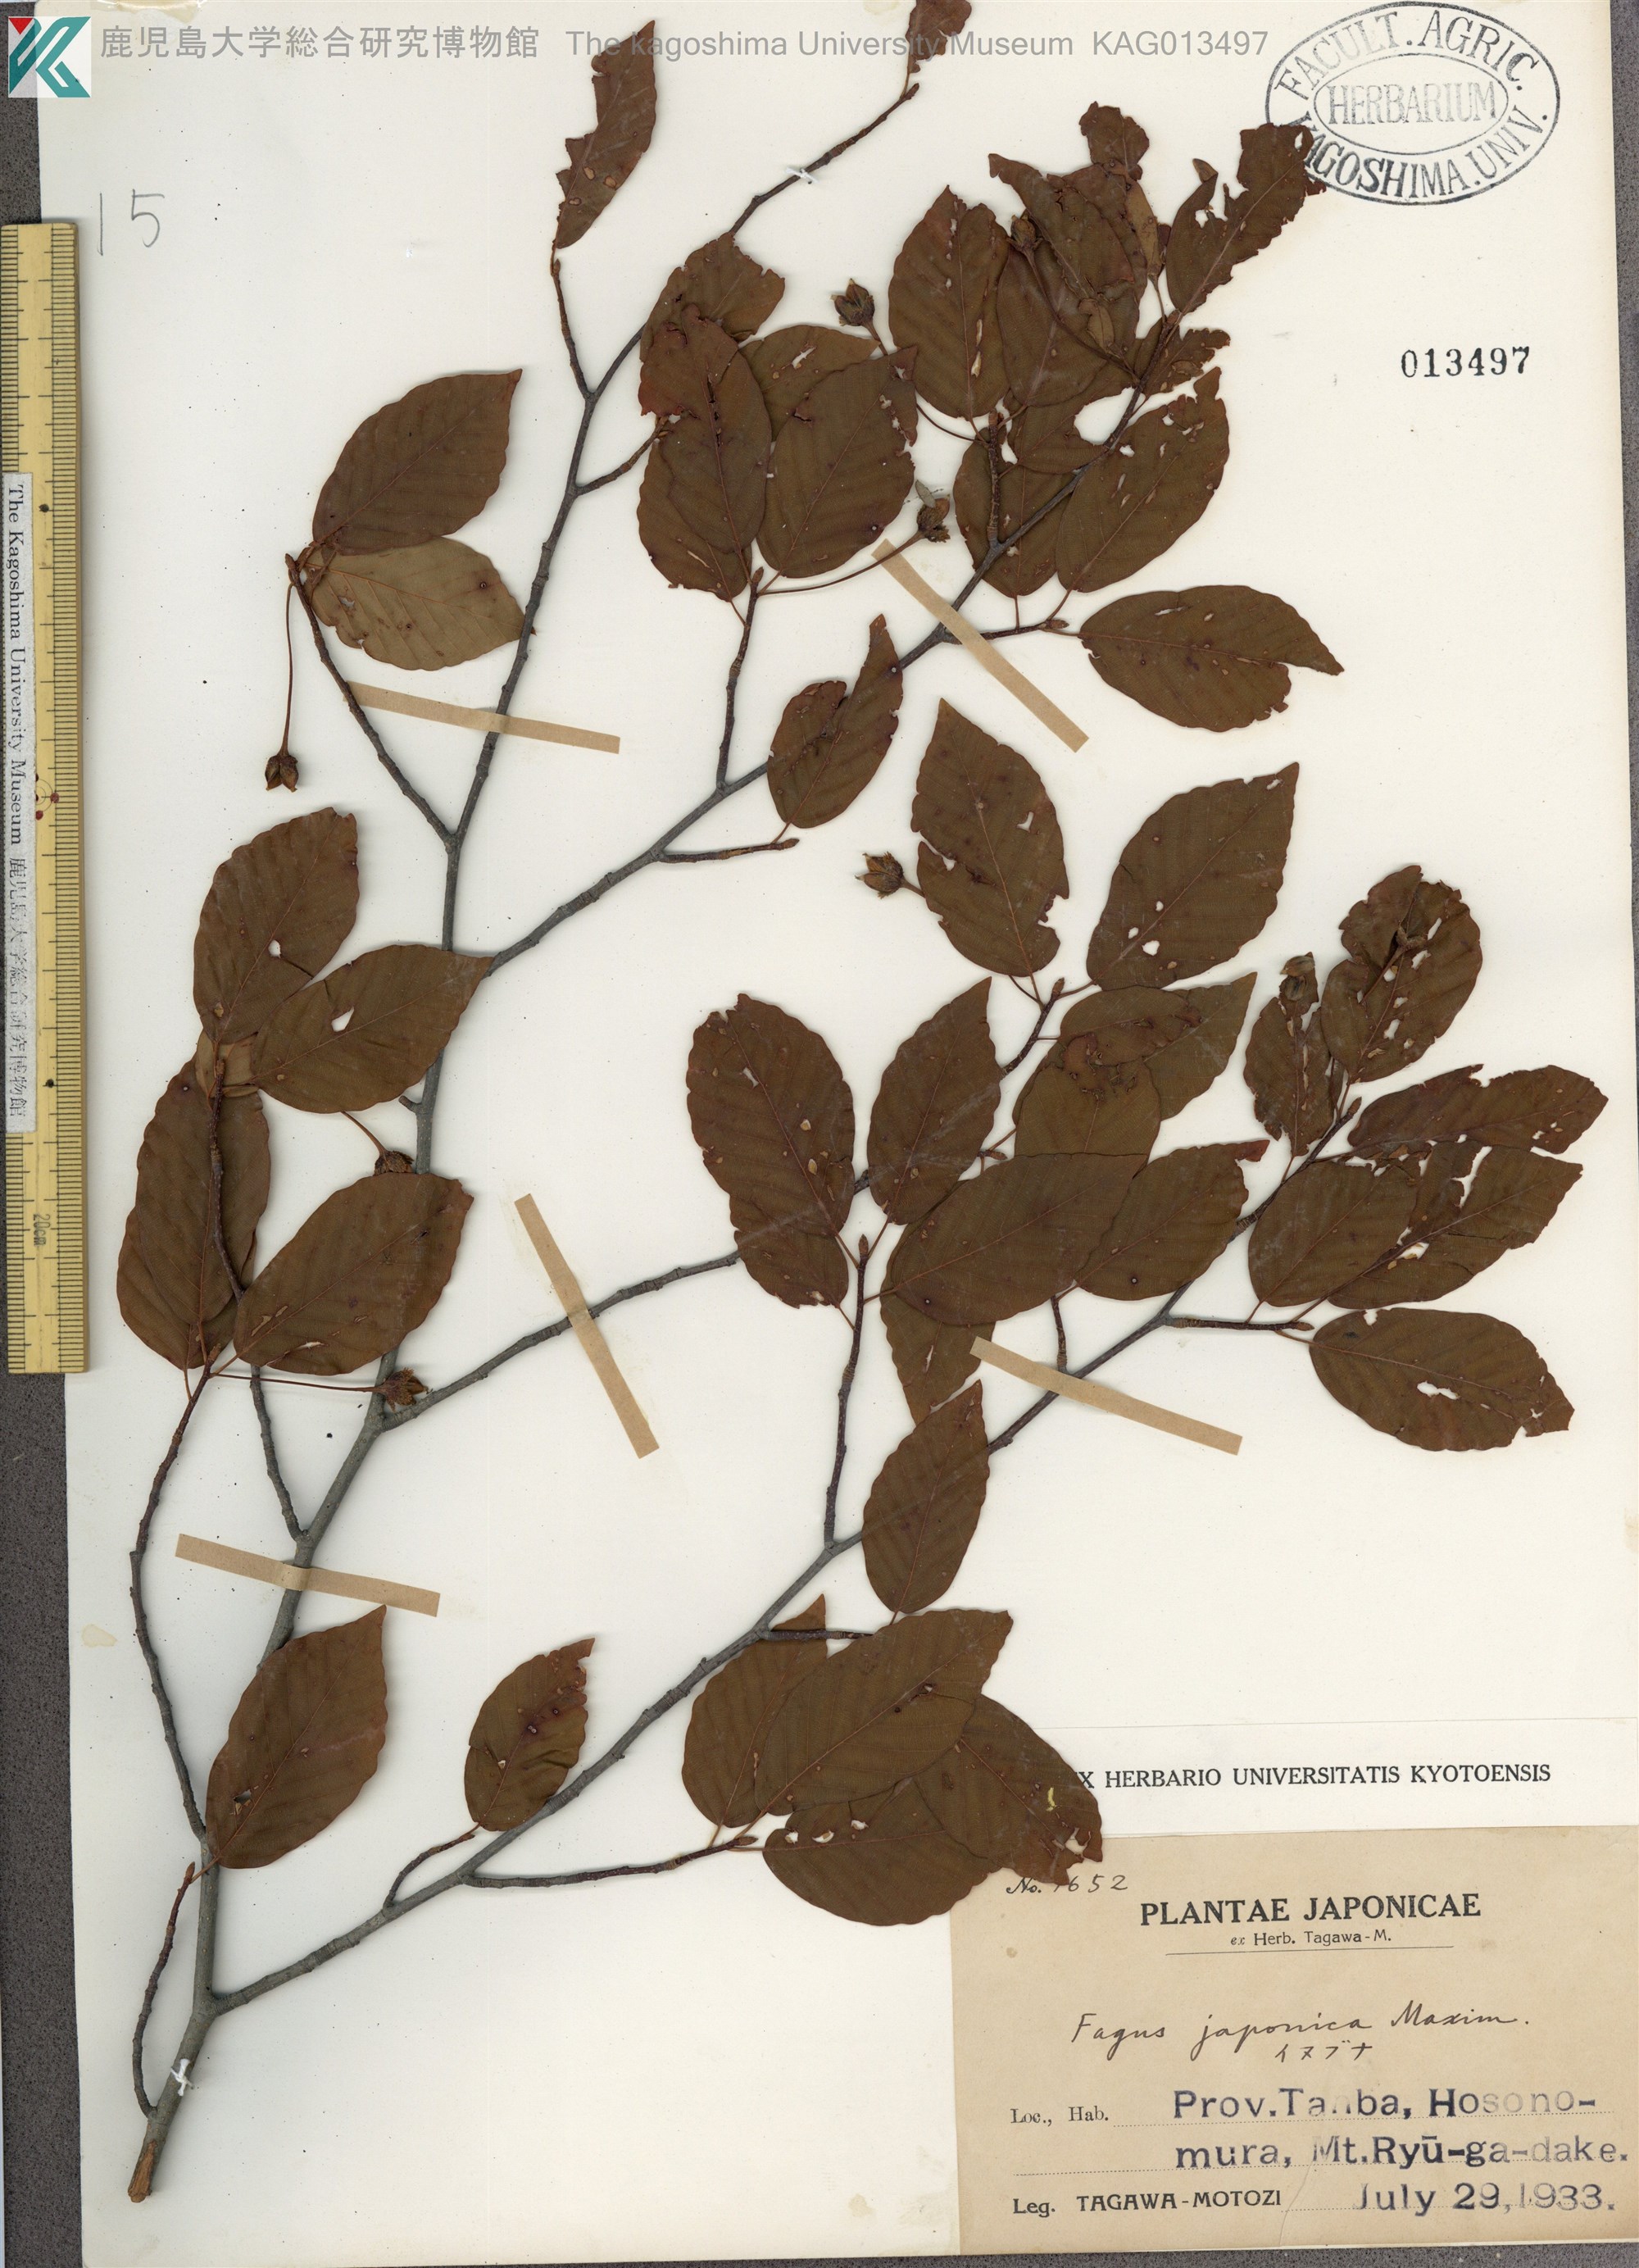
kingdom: Plantae
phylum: Tracheophyta
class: Magnoliopsida
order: Fagales
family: Fagaceae
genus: Fagus
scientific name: Fagus japonica
